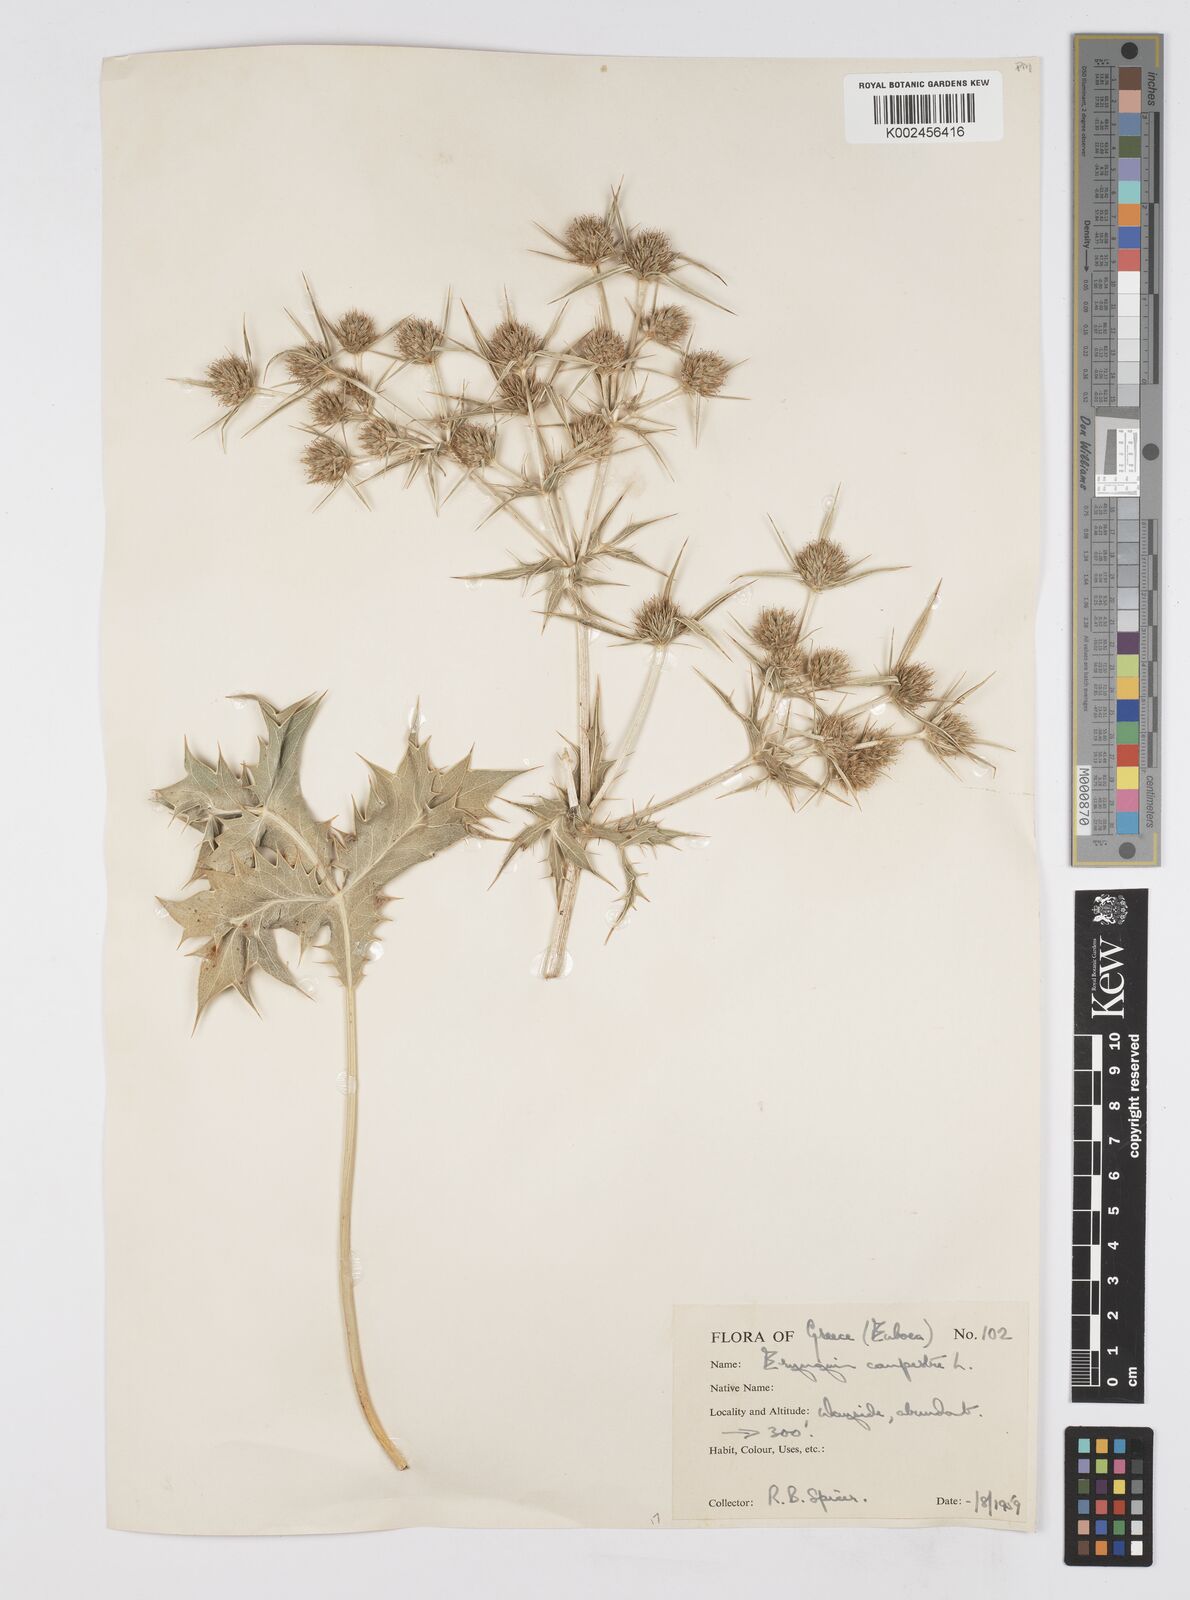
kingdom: Plantae
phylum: Tracheophyta
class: Magnoliopsida
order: Apiales
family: Apiaceae
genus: Eryngium
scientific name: Eryngium campestre
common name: Field eryngo
